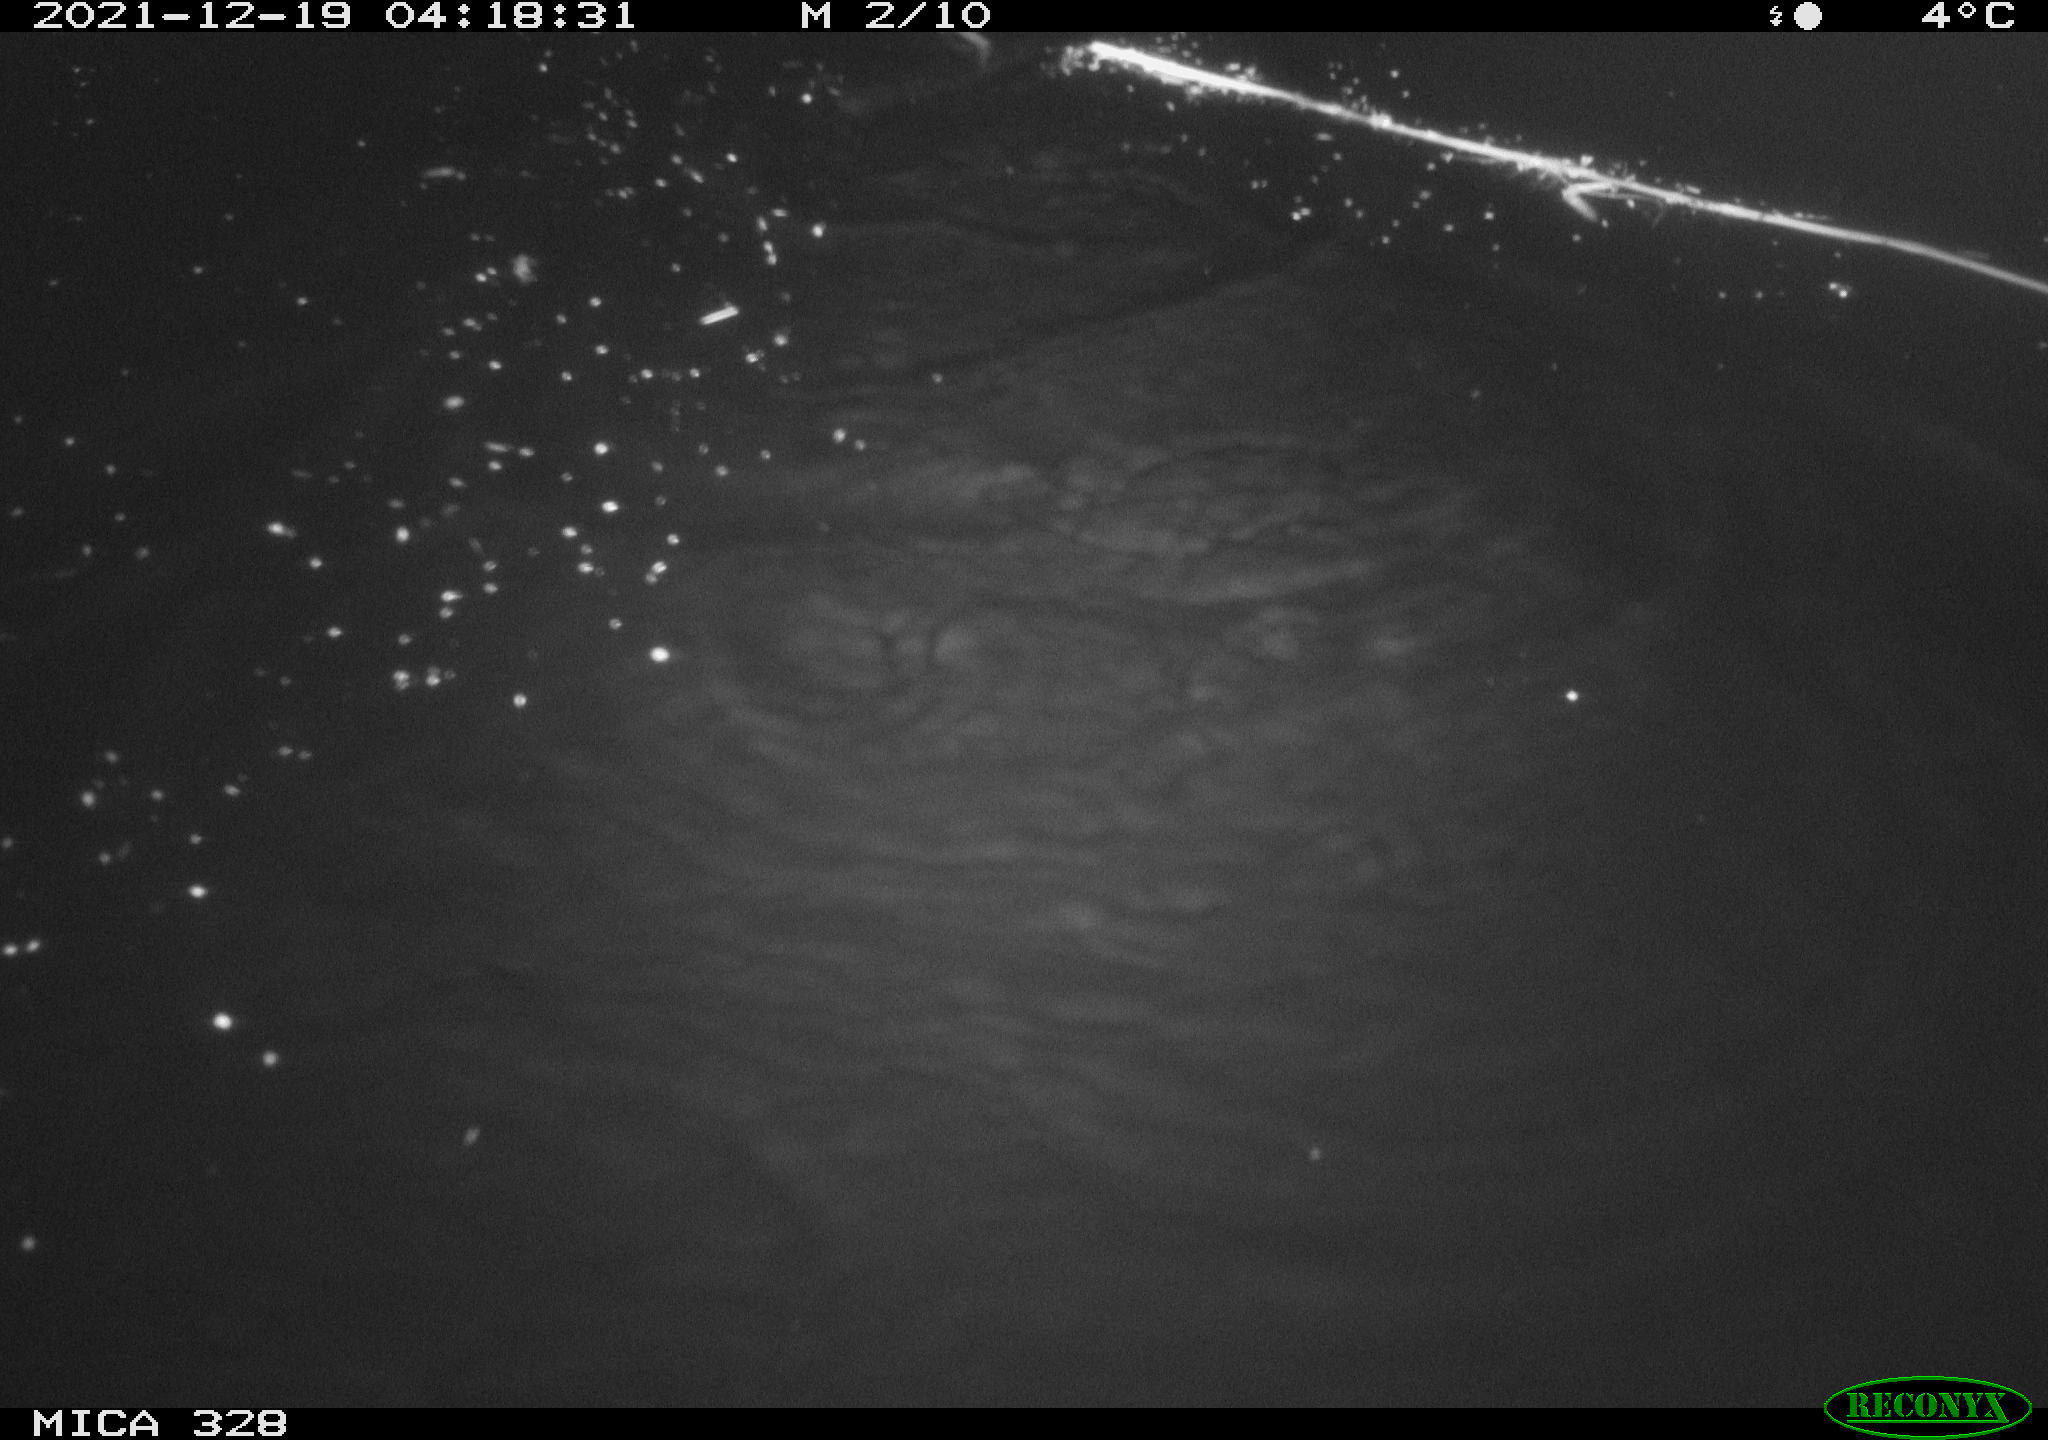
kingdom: Animalia
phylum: Chordata
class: Mammalia
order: Rodentia
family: Cricetidae
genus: Ondatra
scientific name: Ondatra zibethicus
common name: Muskrat
